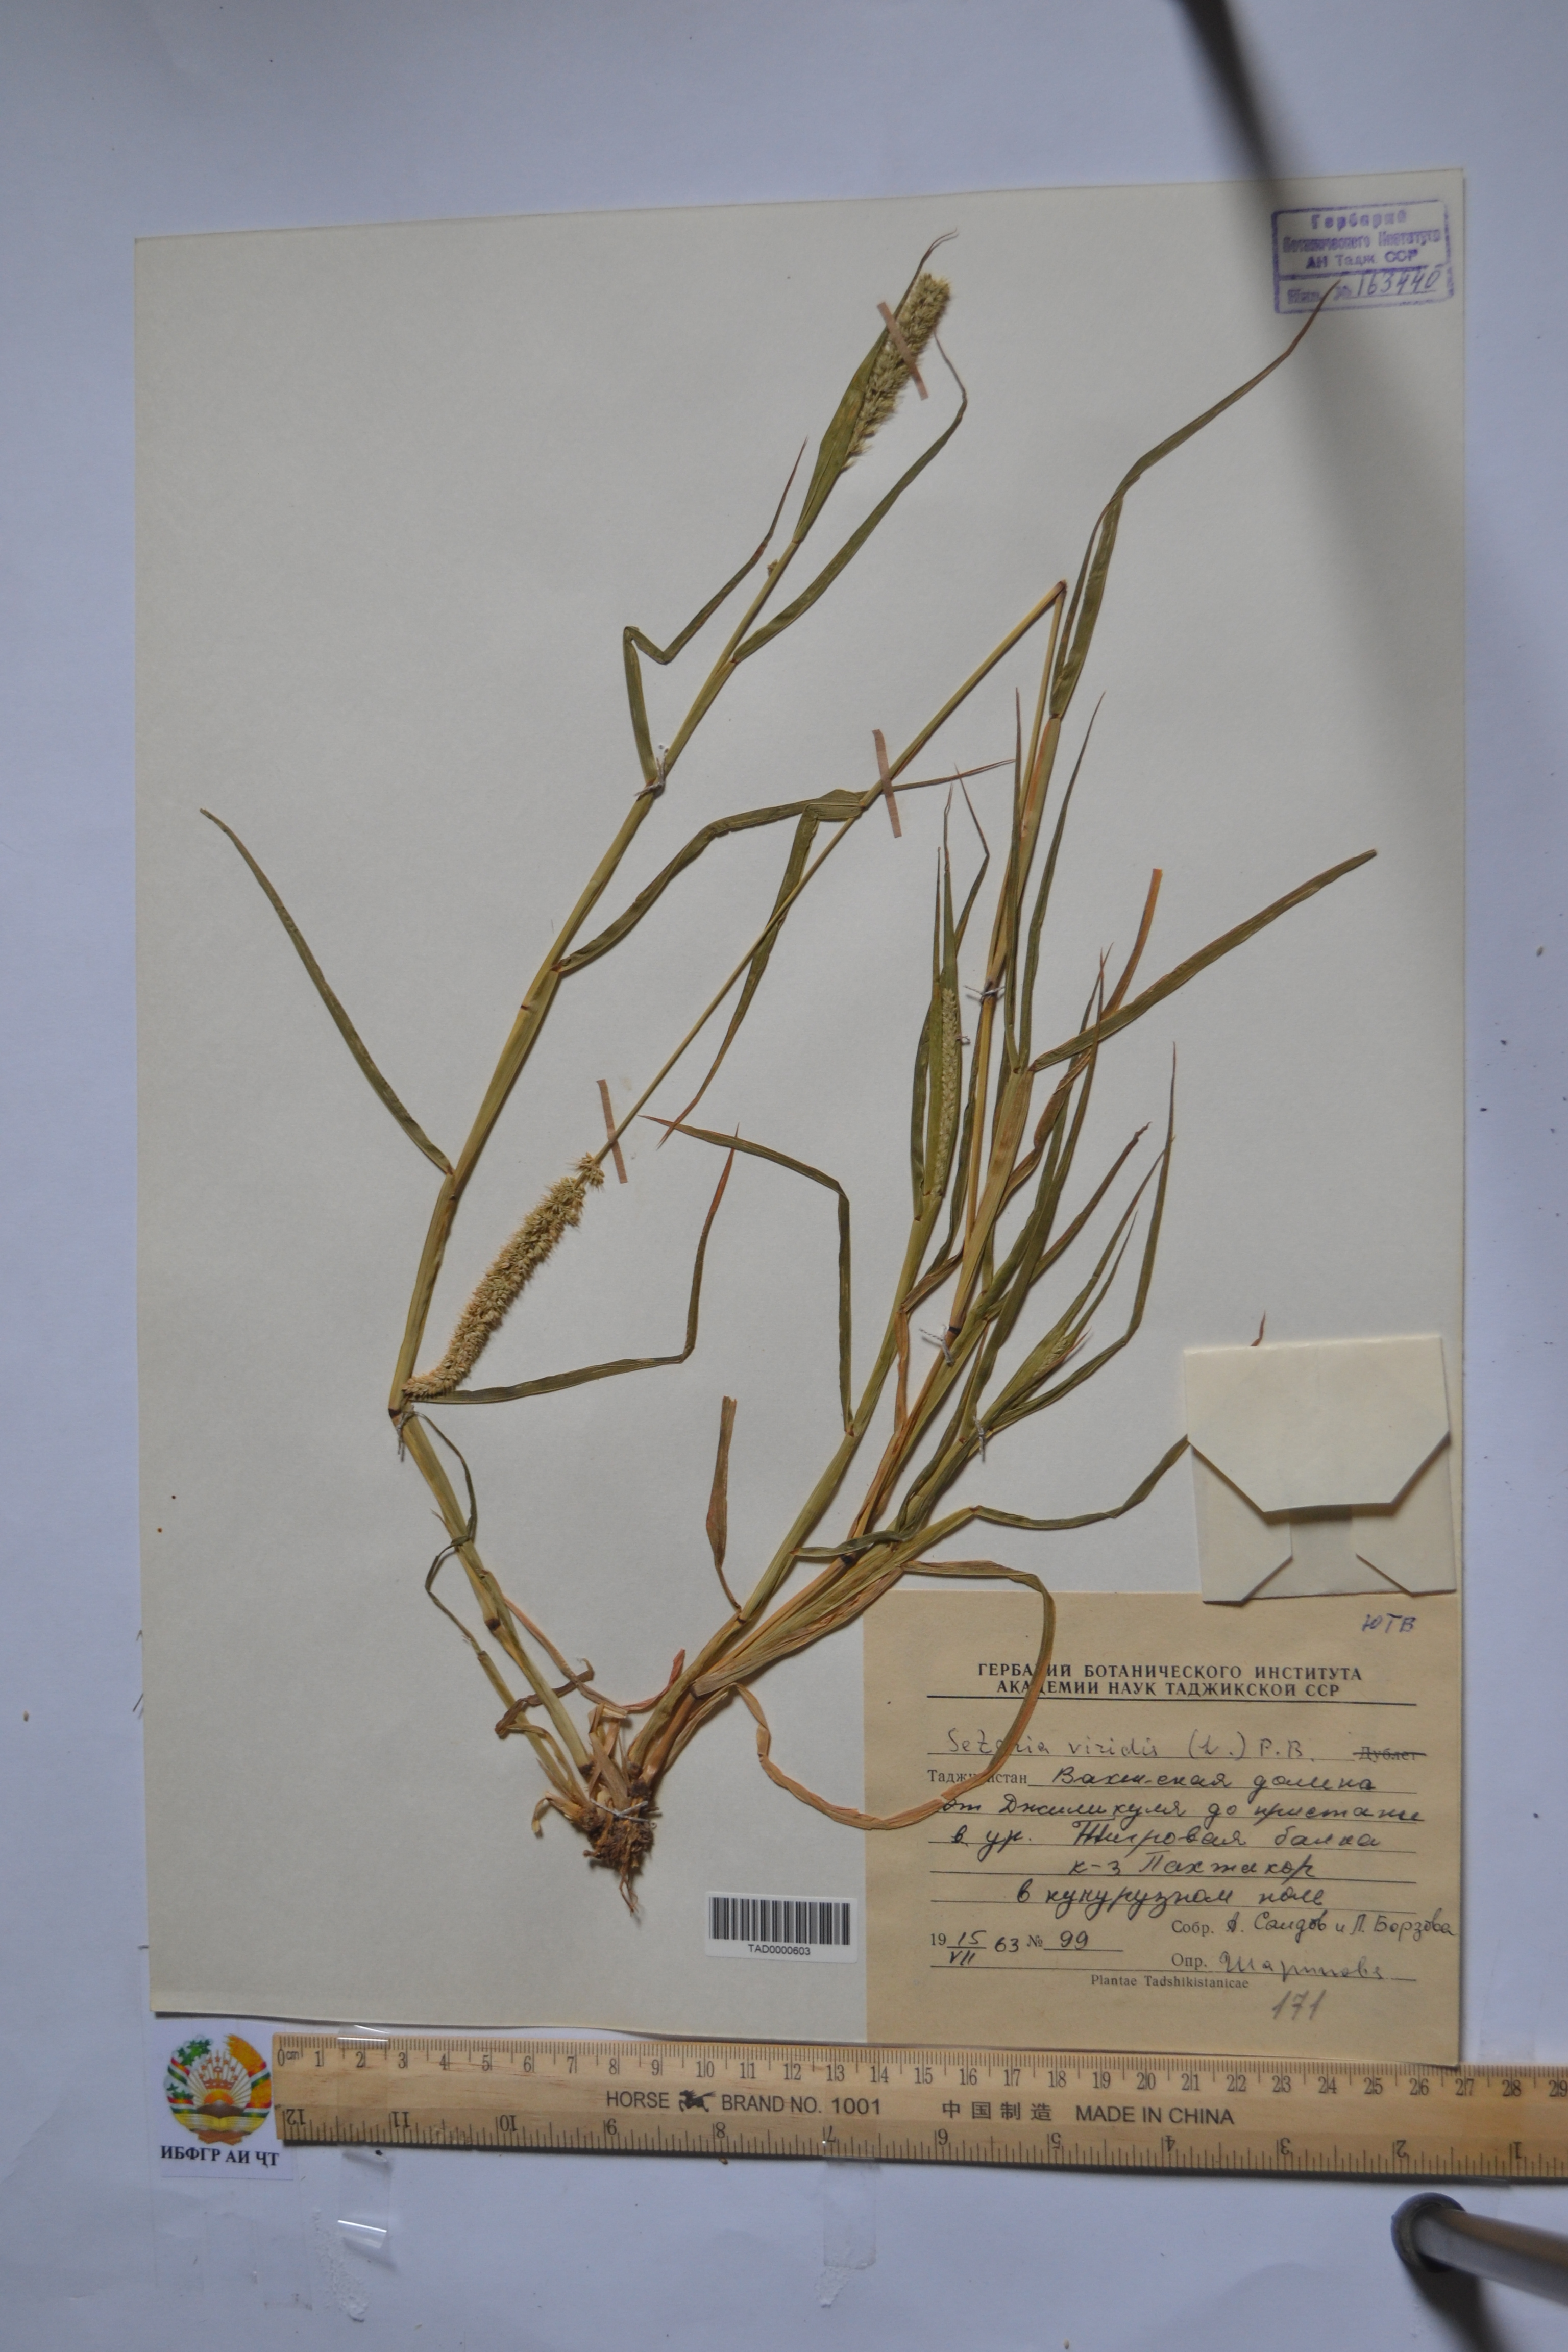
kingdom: Plantae
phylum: Tracheophyta
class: Liliopsida
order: Poales
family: Poaceae
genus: Setaria
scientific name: Setaria viridis
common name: Green bristlegrass
